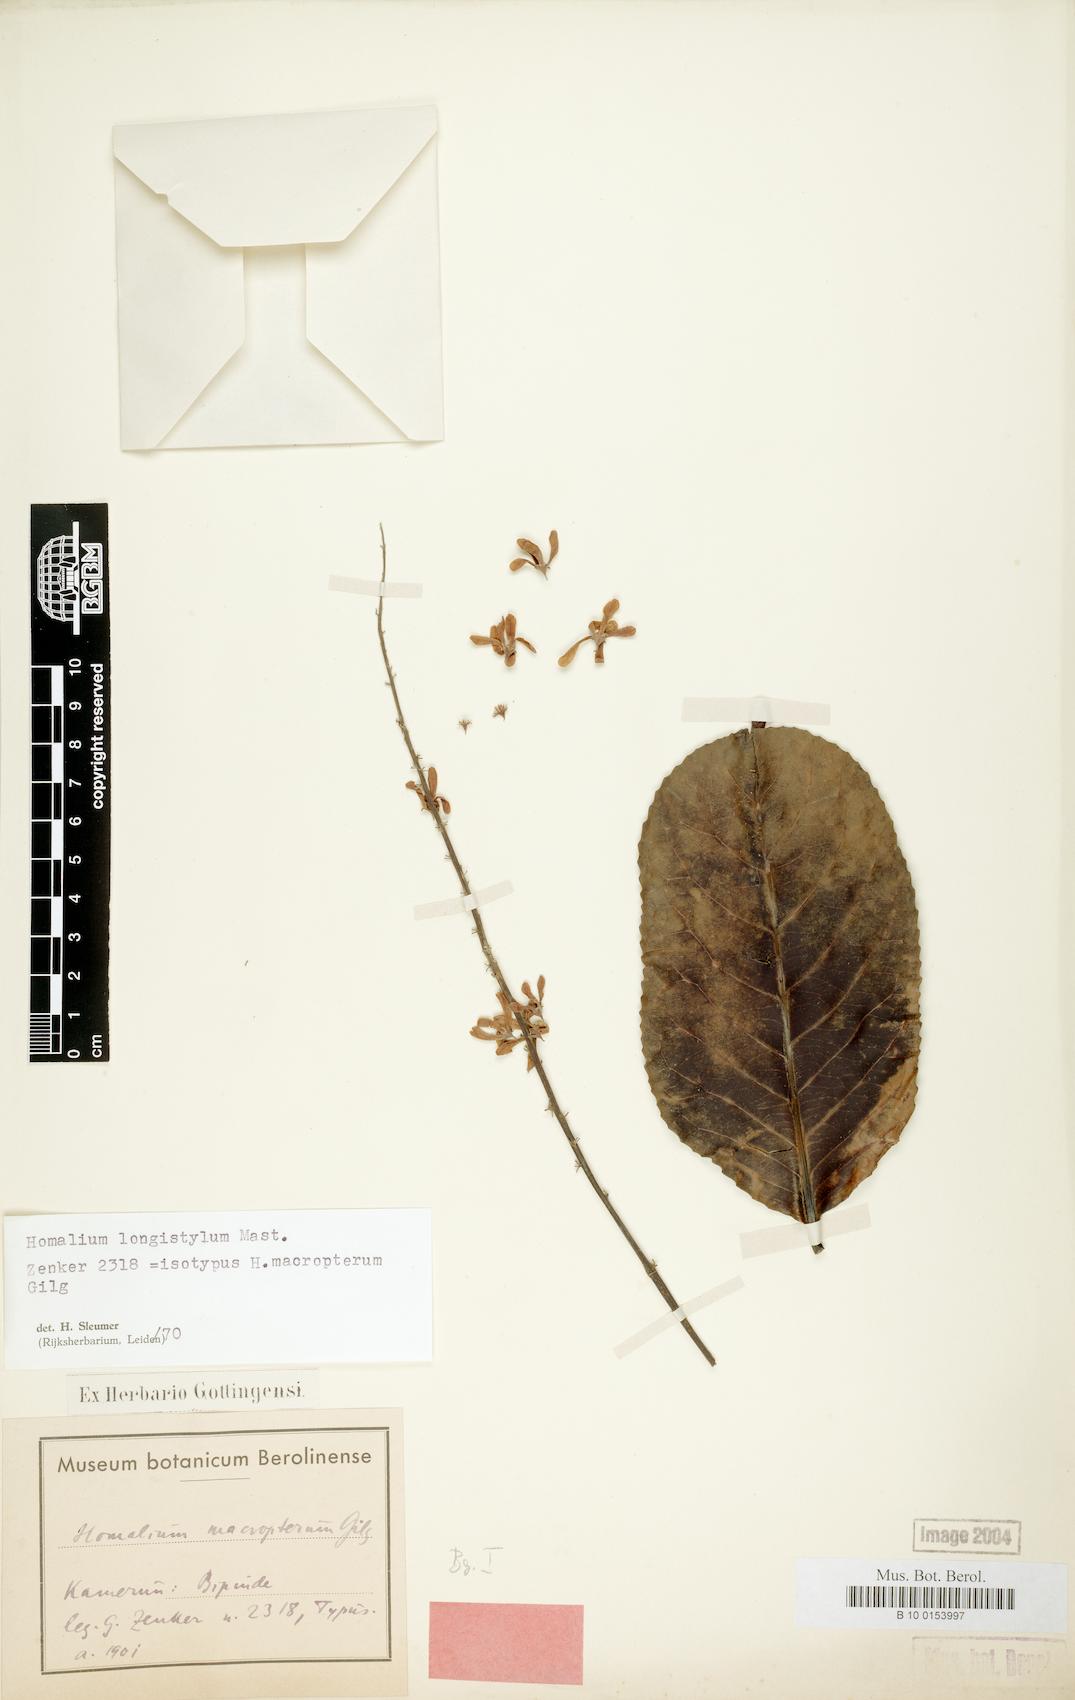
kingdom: Plantae
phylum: Tracheophyta
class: Magnoliopsida
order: Malpighiales
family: Salicaceae
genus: Homalium
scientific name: Homalium longistylum
